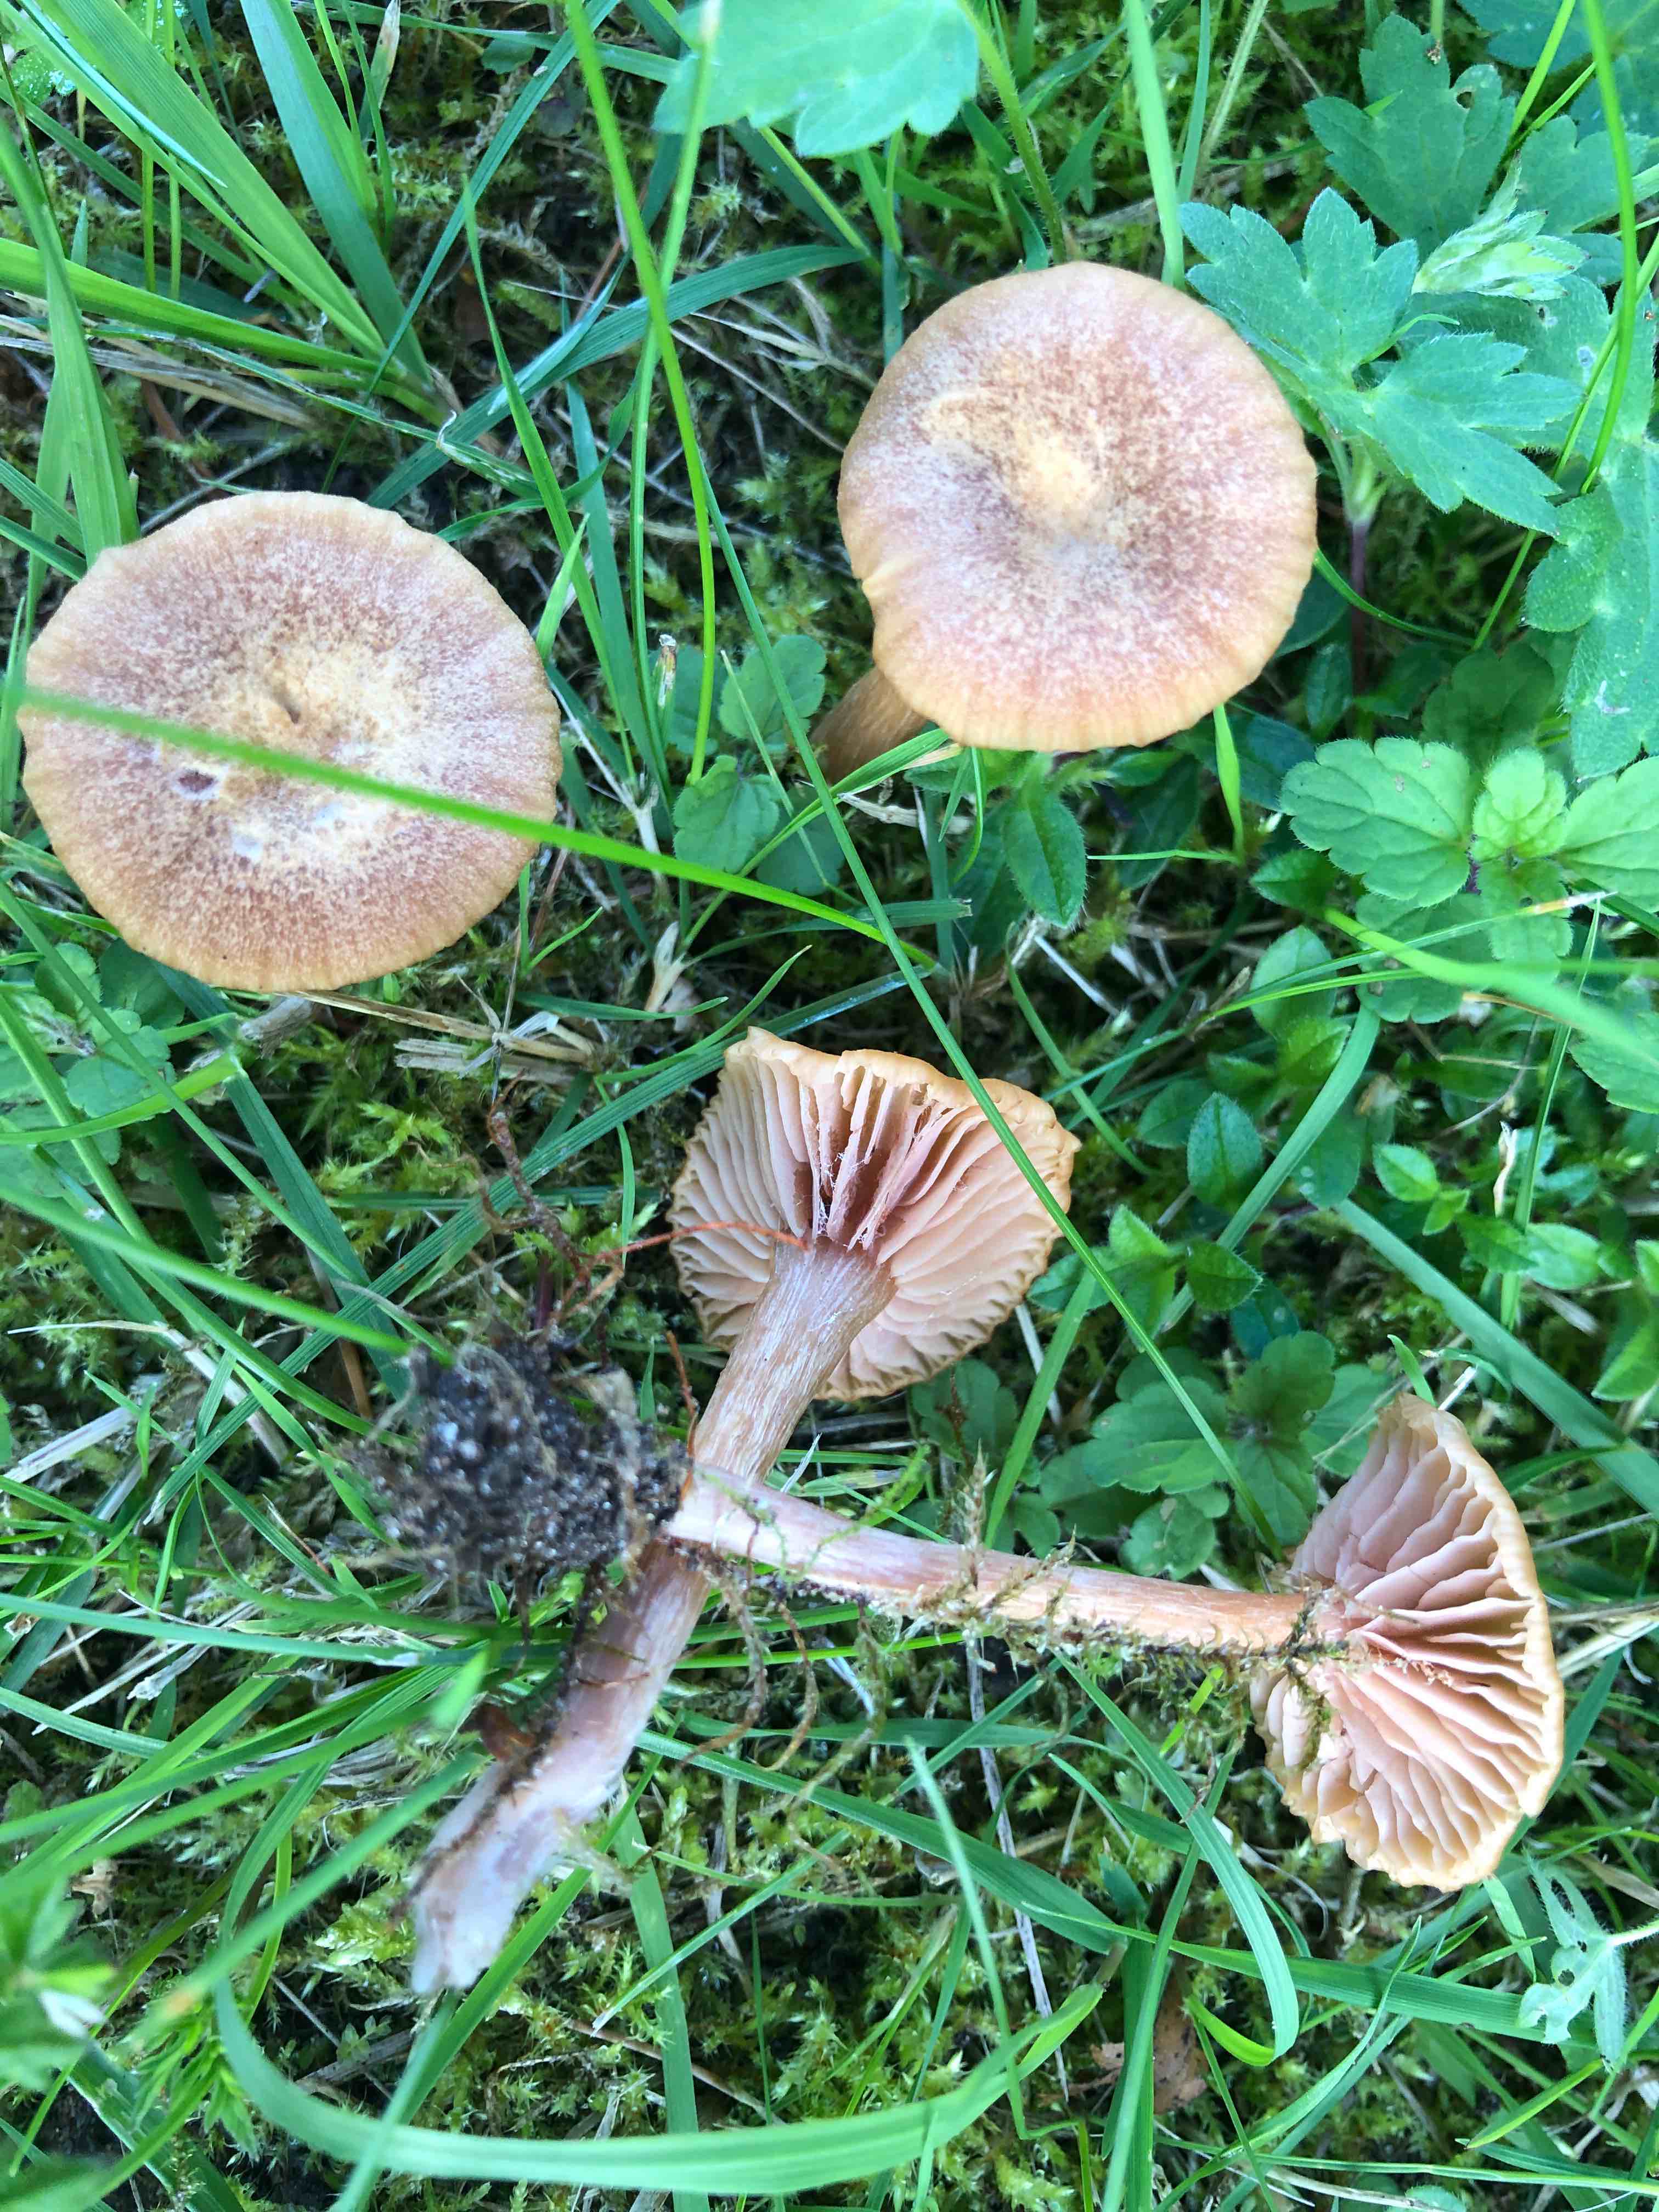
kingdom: Fungi
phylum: Basidiomycota
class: Agaricomycetes
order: Agaricales
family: Hydnangiaceae
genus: Laccaria
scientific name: Laccaria laccata
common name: rød ametysthat
